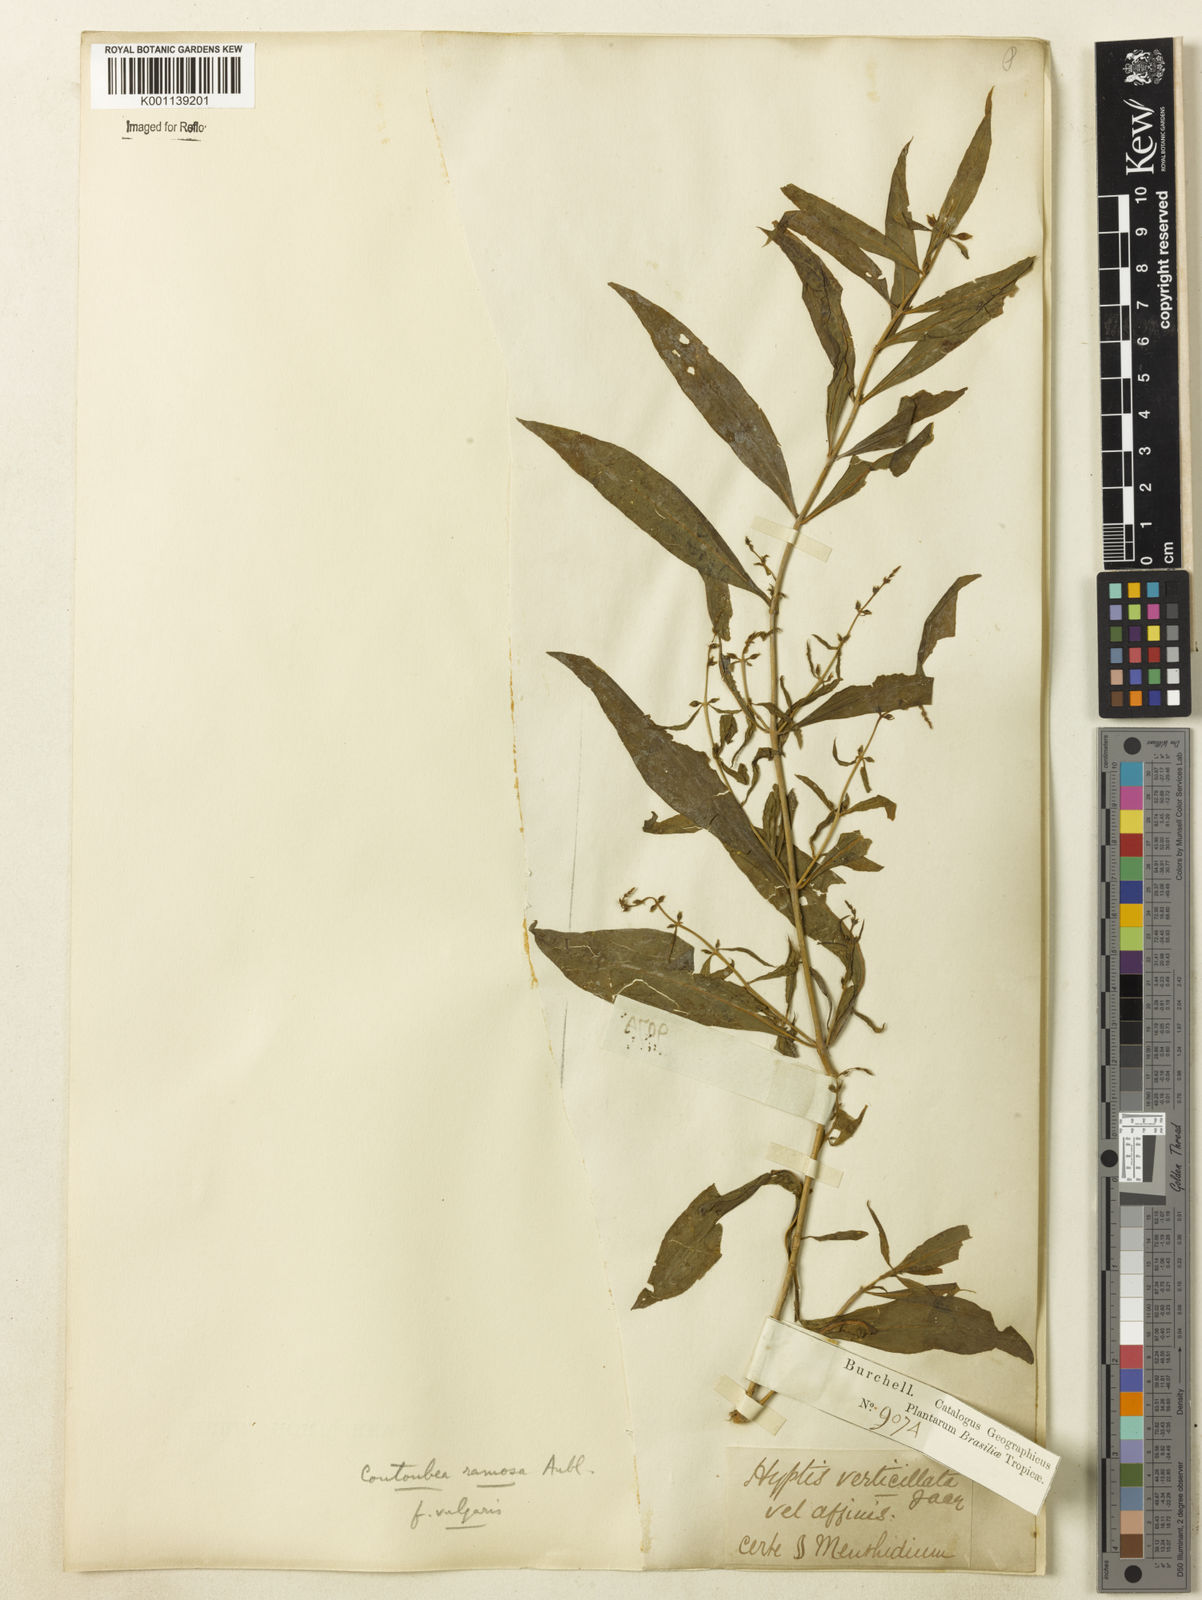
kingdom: Plantae
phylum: Tracheophyta
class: Magnoliopsida
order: Gentianales
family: Gentianaceae
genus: Coutoubea
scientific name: Coutoubea ramosa
